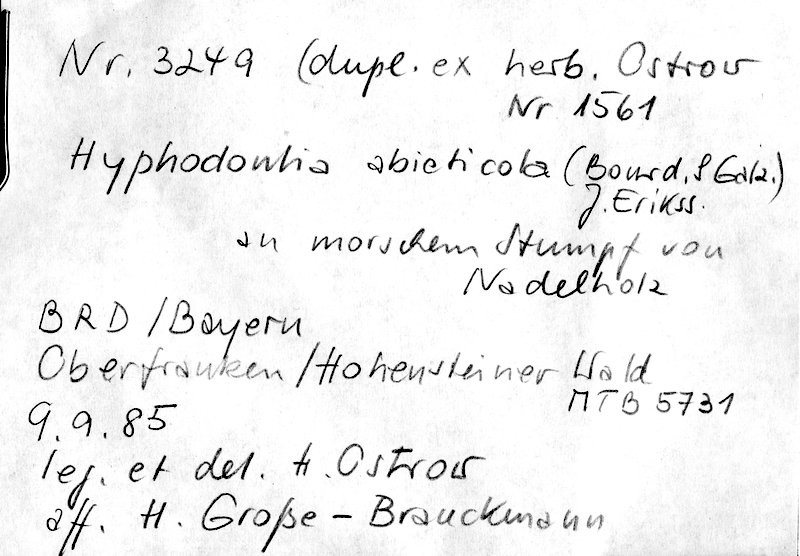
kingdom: Fungi
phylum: Basidiomycota
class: Agaricomycetes
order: Hymenochaetales
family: Hyphodontiaceae
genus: Hyphodontia
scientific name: Hyphodontia abieticola
